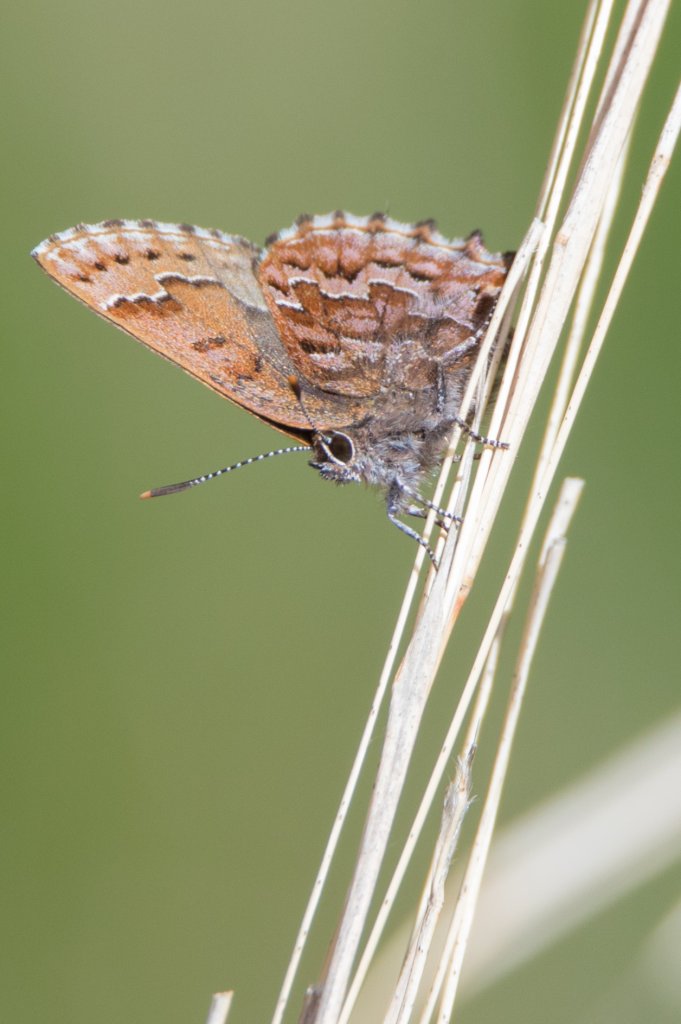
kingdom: Animalia
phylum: Arthropoda
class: Insecta
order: Lepidoptera
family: Lycaenidae
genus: Incisalia
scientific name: Incisalia niphon
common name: Eastern Pine Elfin
